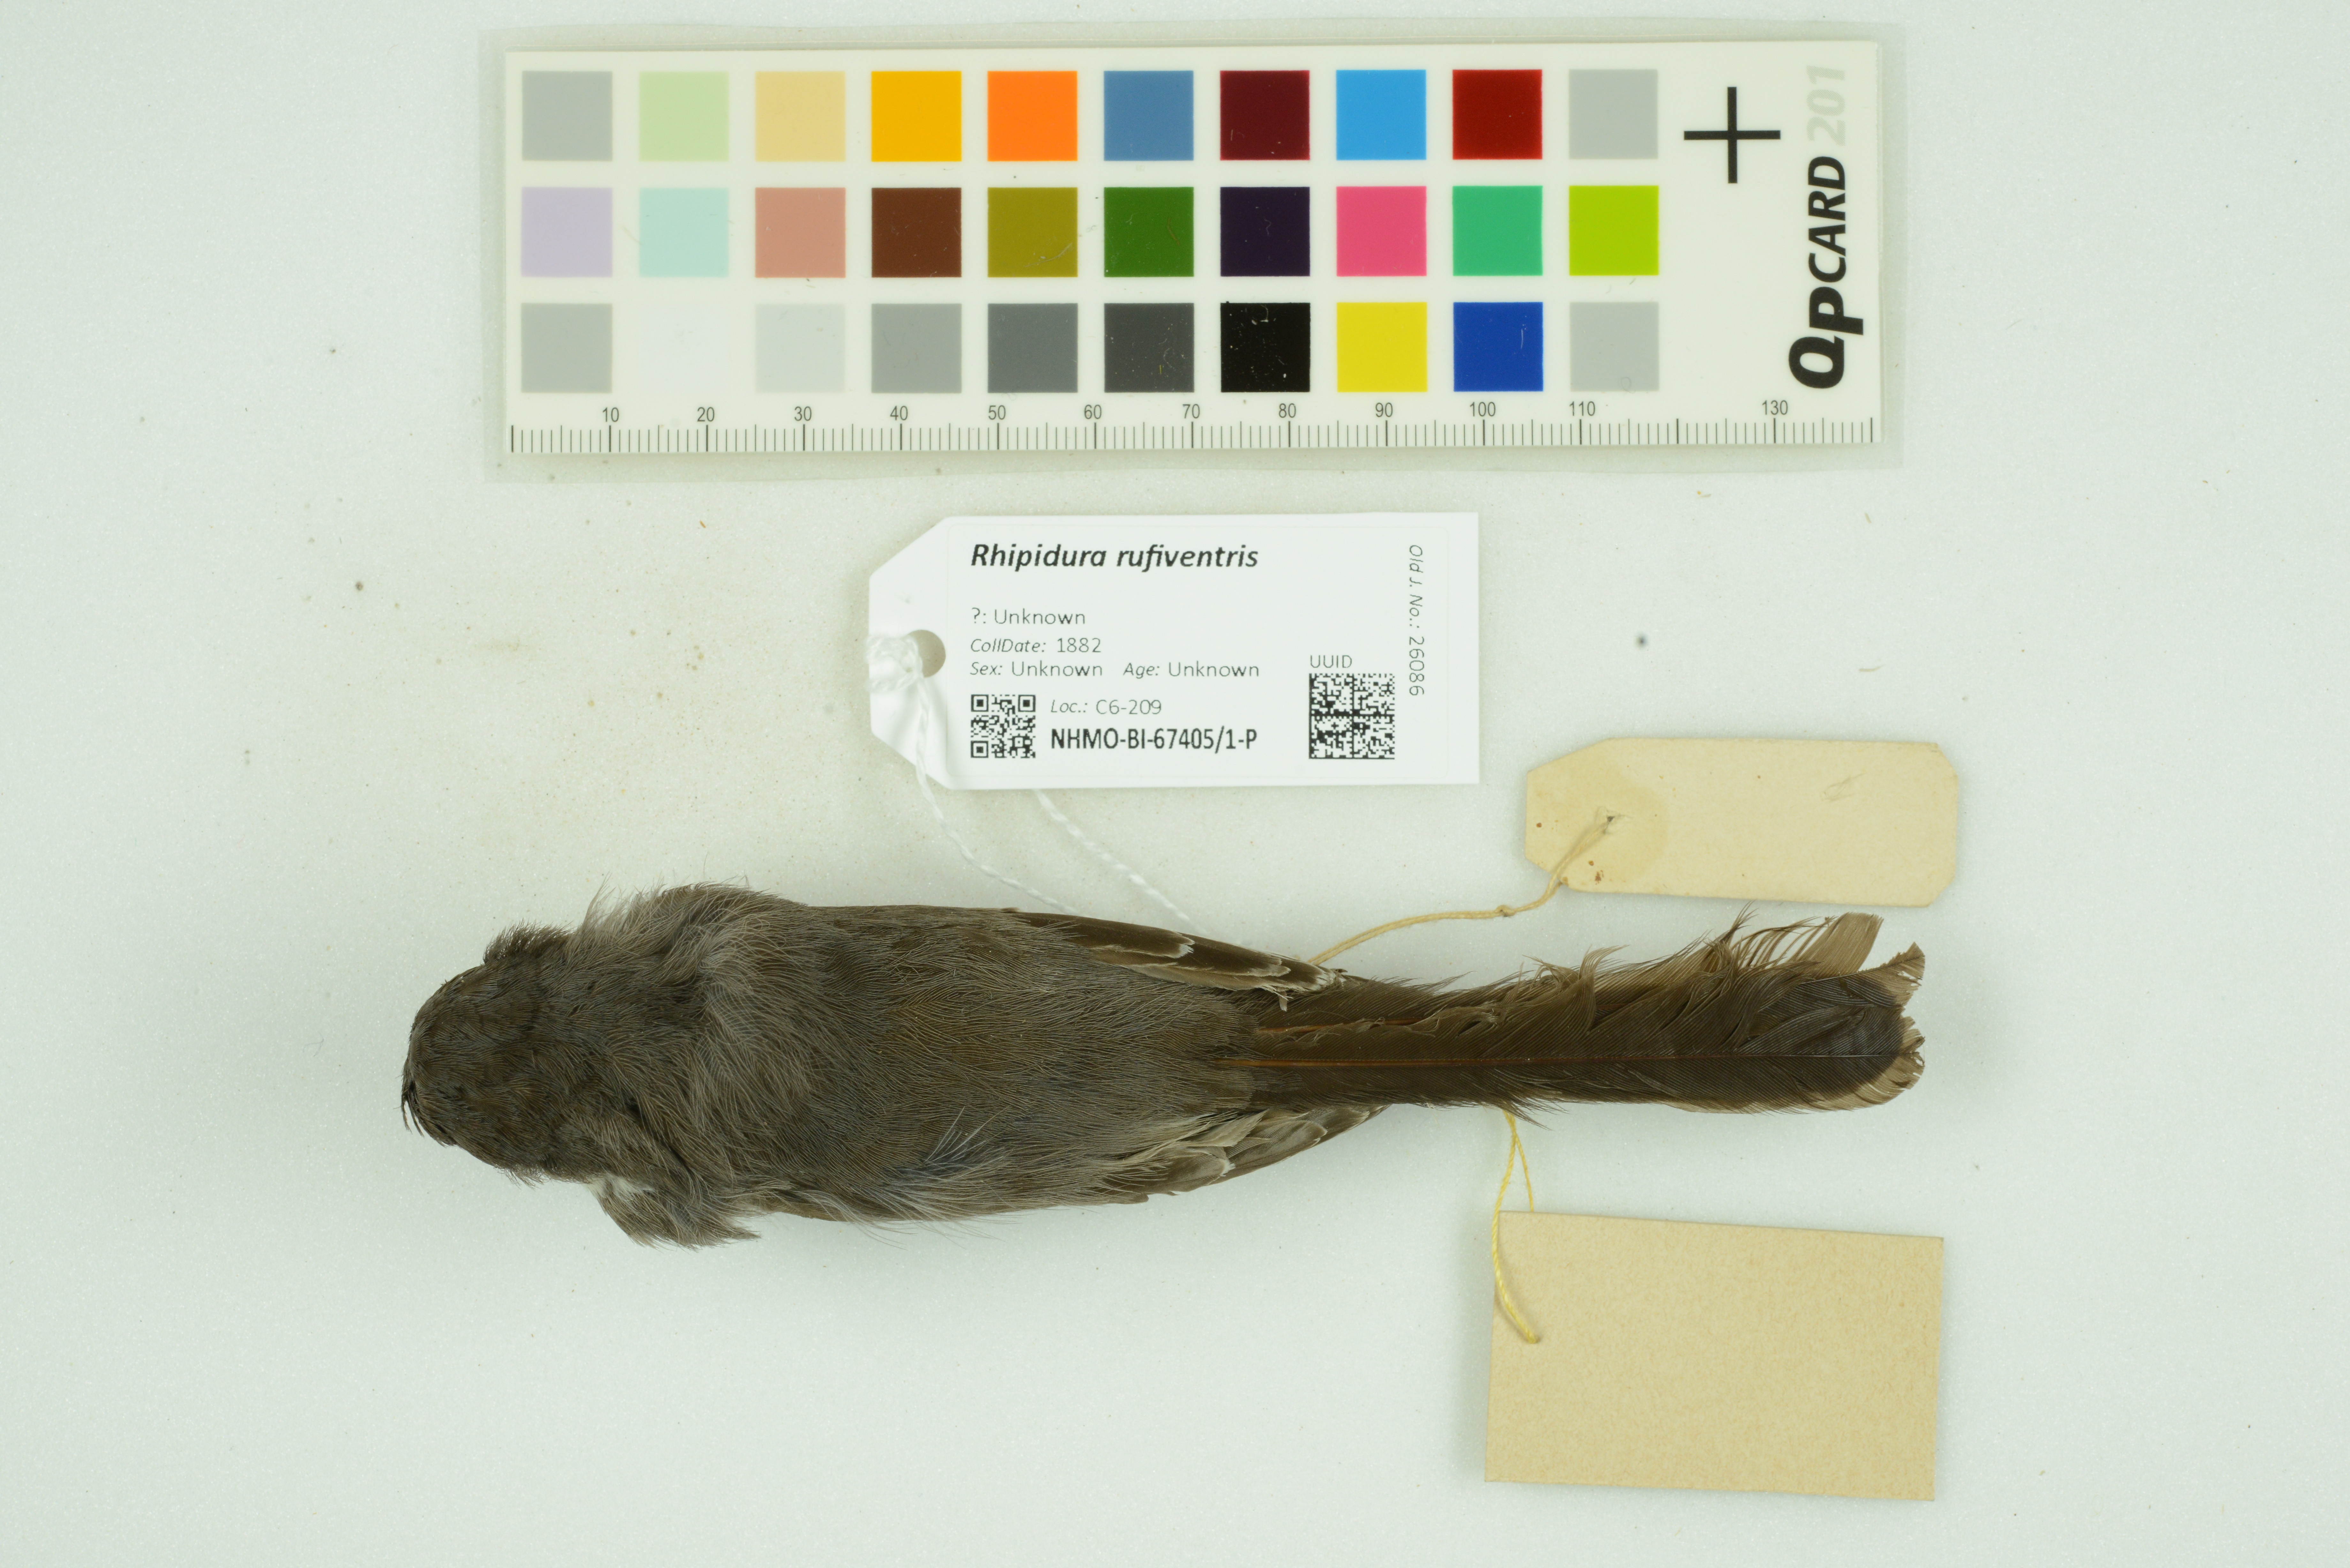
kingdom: Animalia
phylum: Chordata
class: Aves
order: Passeriformes
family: Rhipiduridae
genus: Rhipidura
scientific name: Rhipidura rufiventris
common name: Northern fantail
